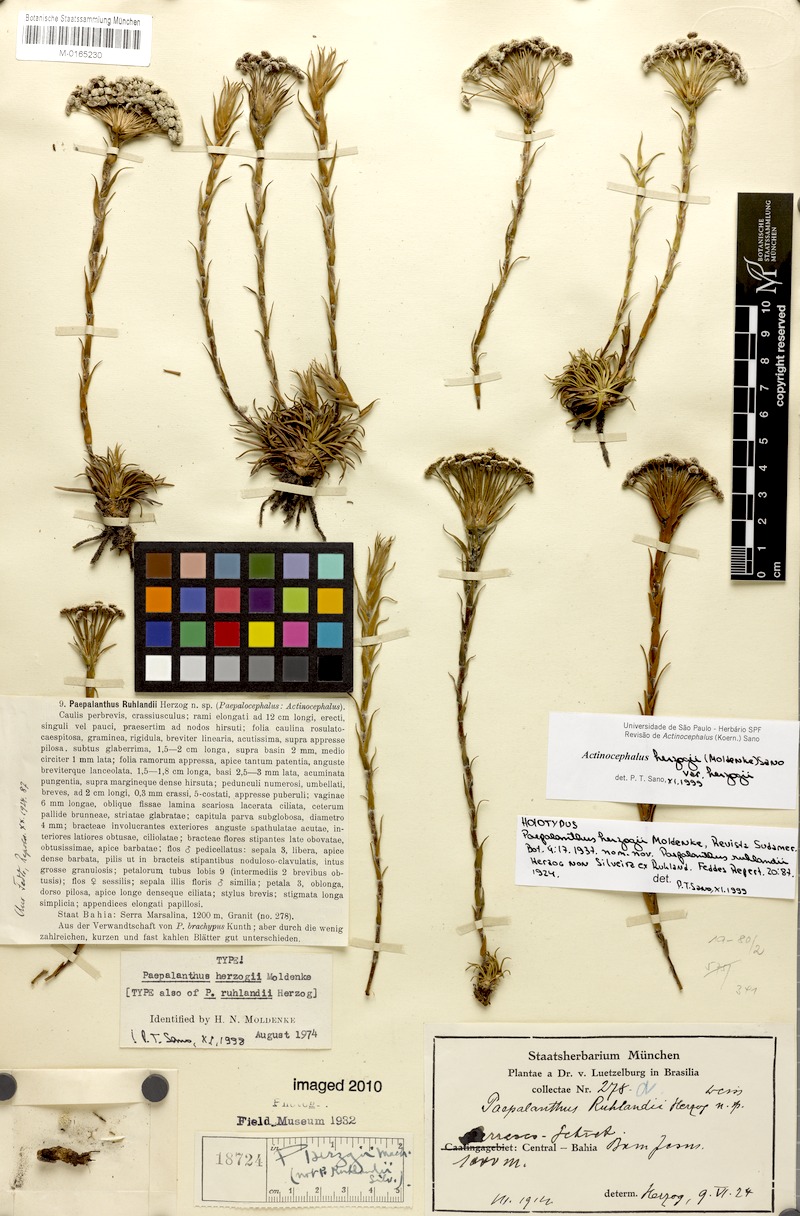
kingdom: Plantae
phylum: Tracheophyta
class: Liliopsida
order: Poales
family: Eriocaulaceae
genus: Paepalanthus
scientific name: Paepalanthus herzogii
